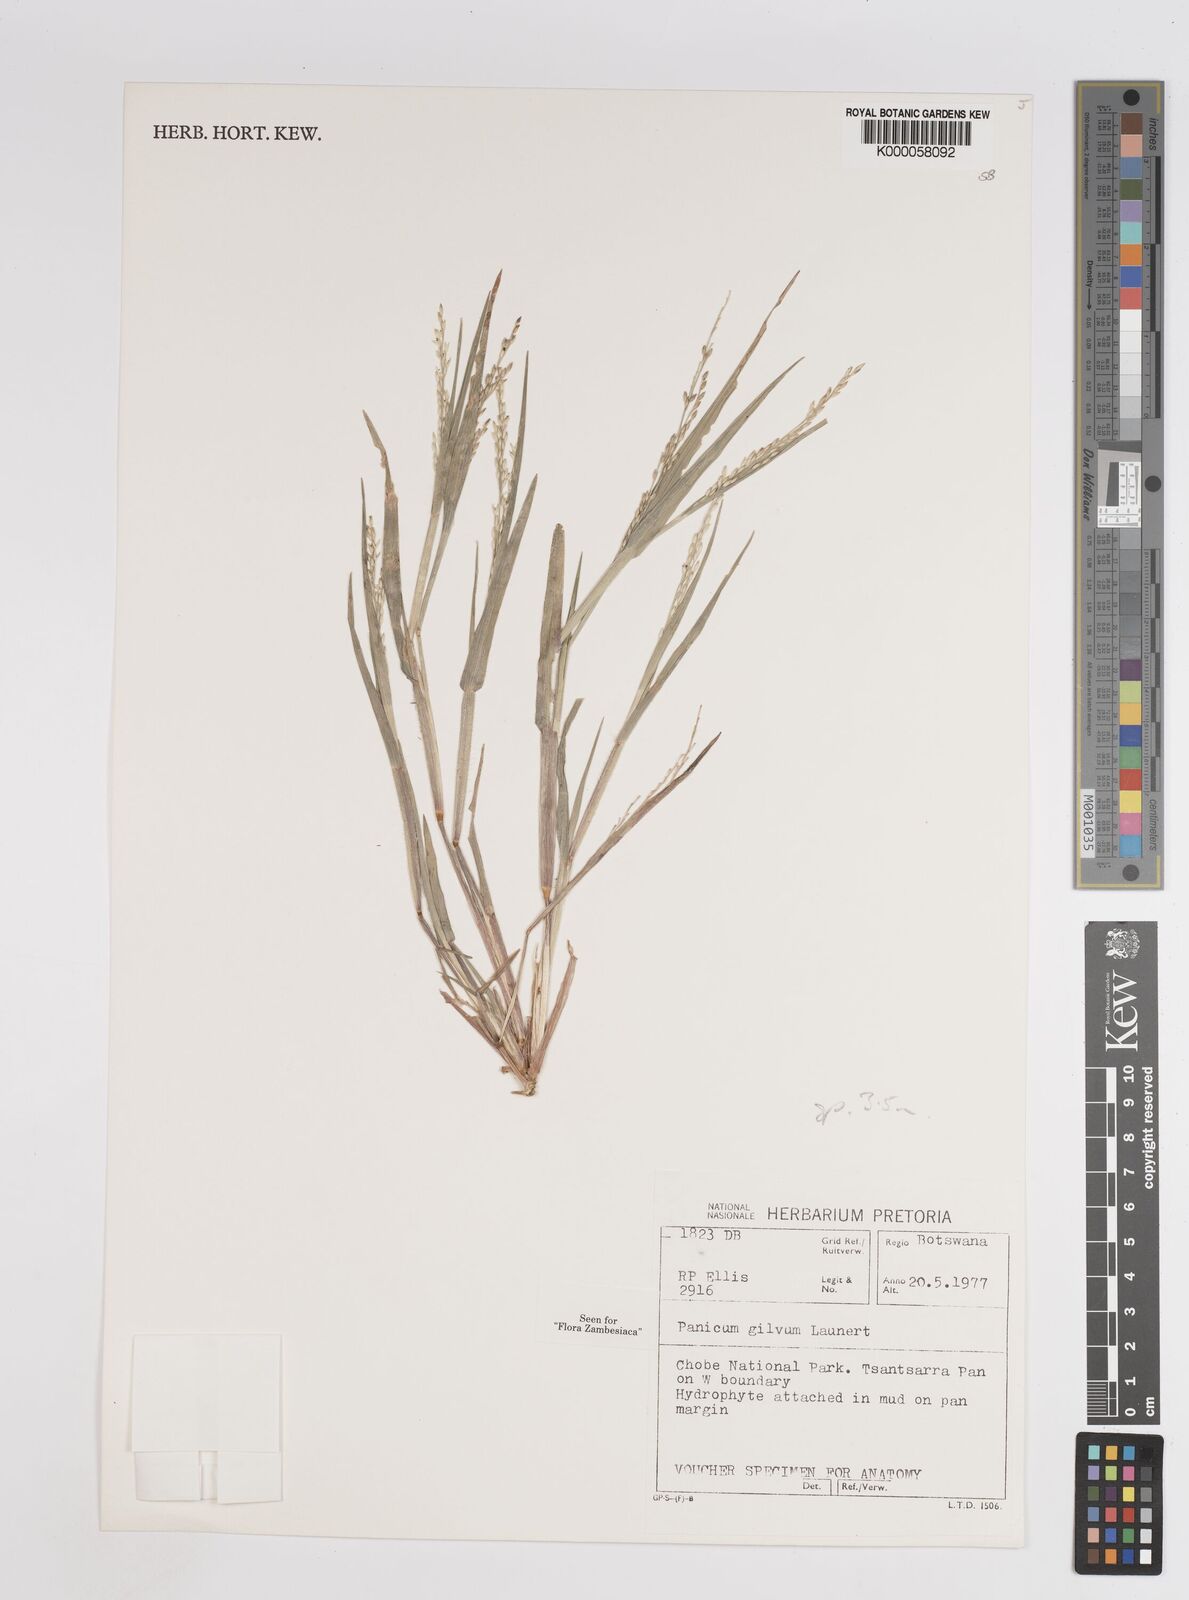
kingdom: Plantae
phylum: Tracheophyta
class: Liliopsida
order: Poales
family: Poaceae
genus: Panicum
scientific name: Panicum gilvum
